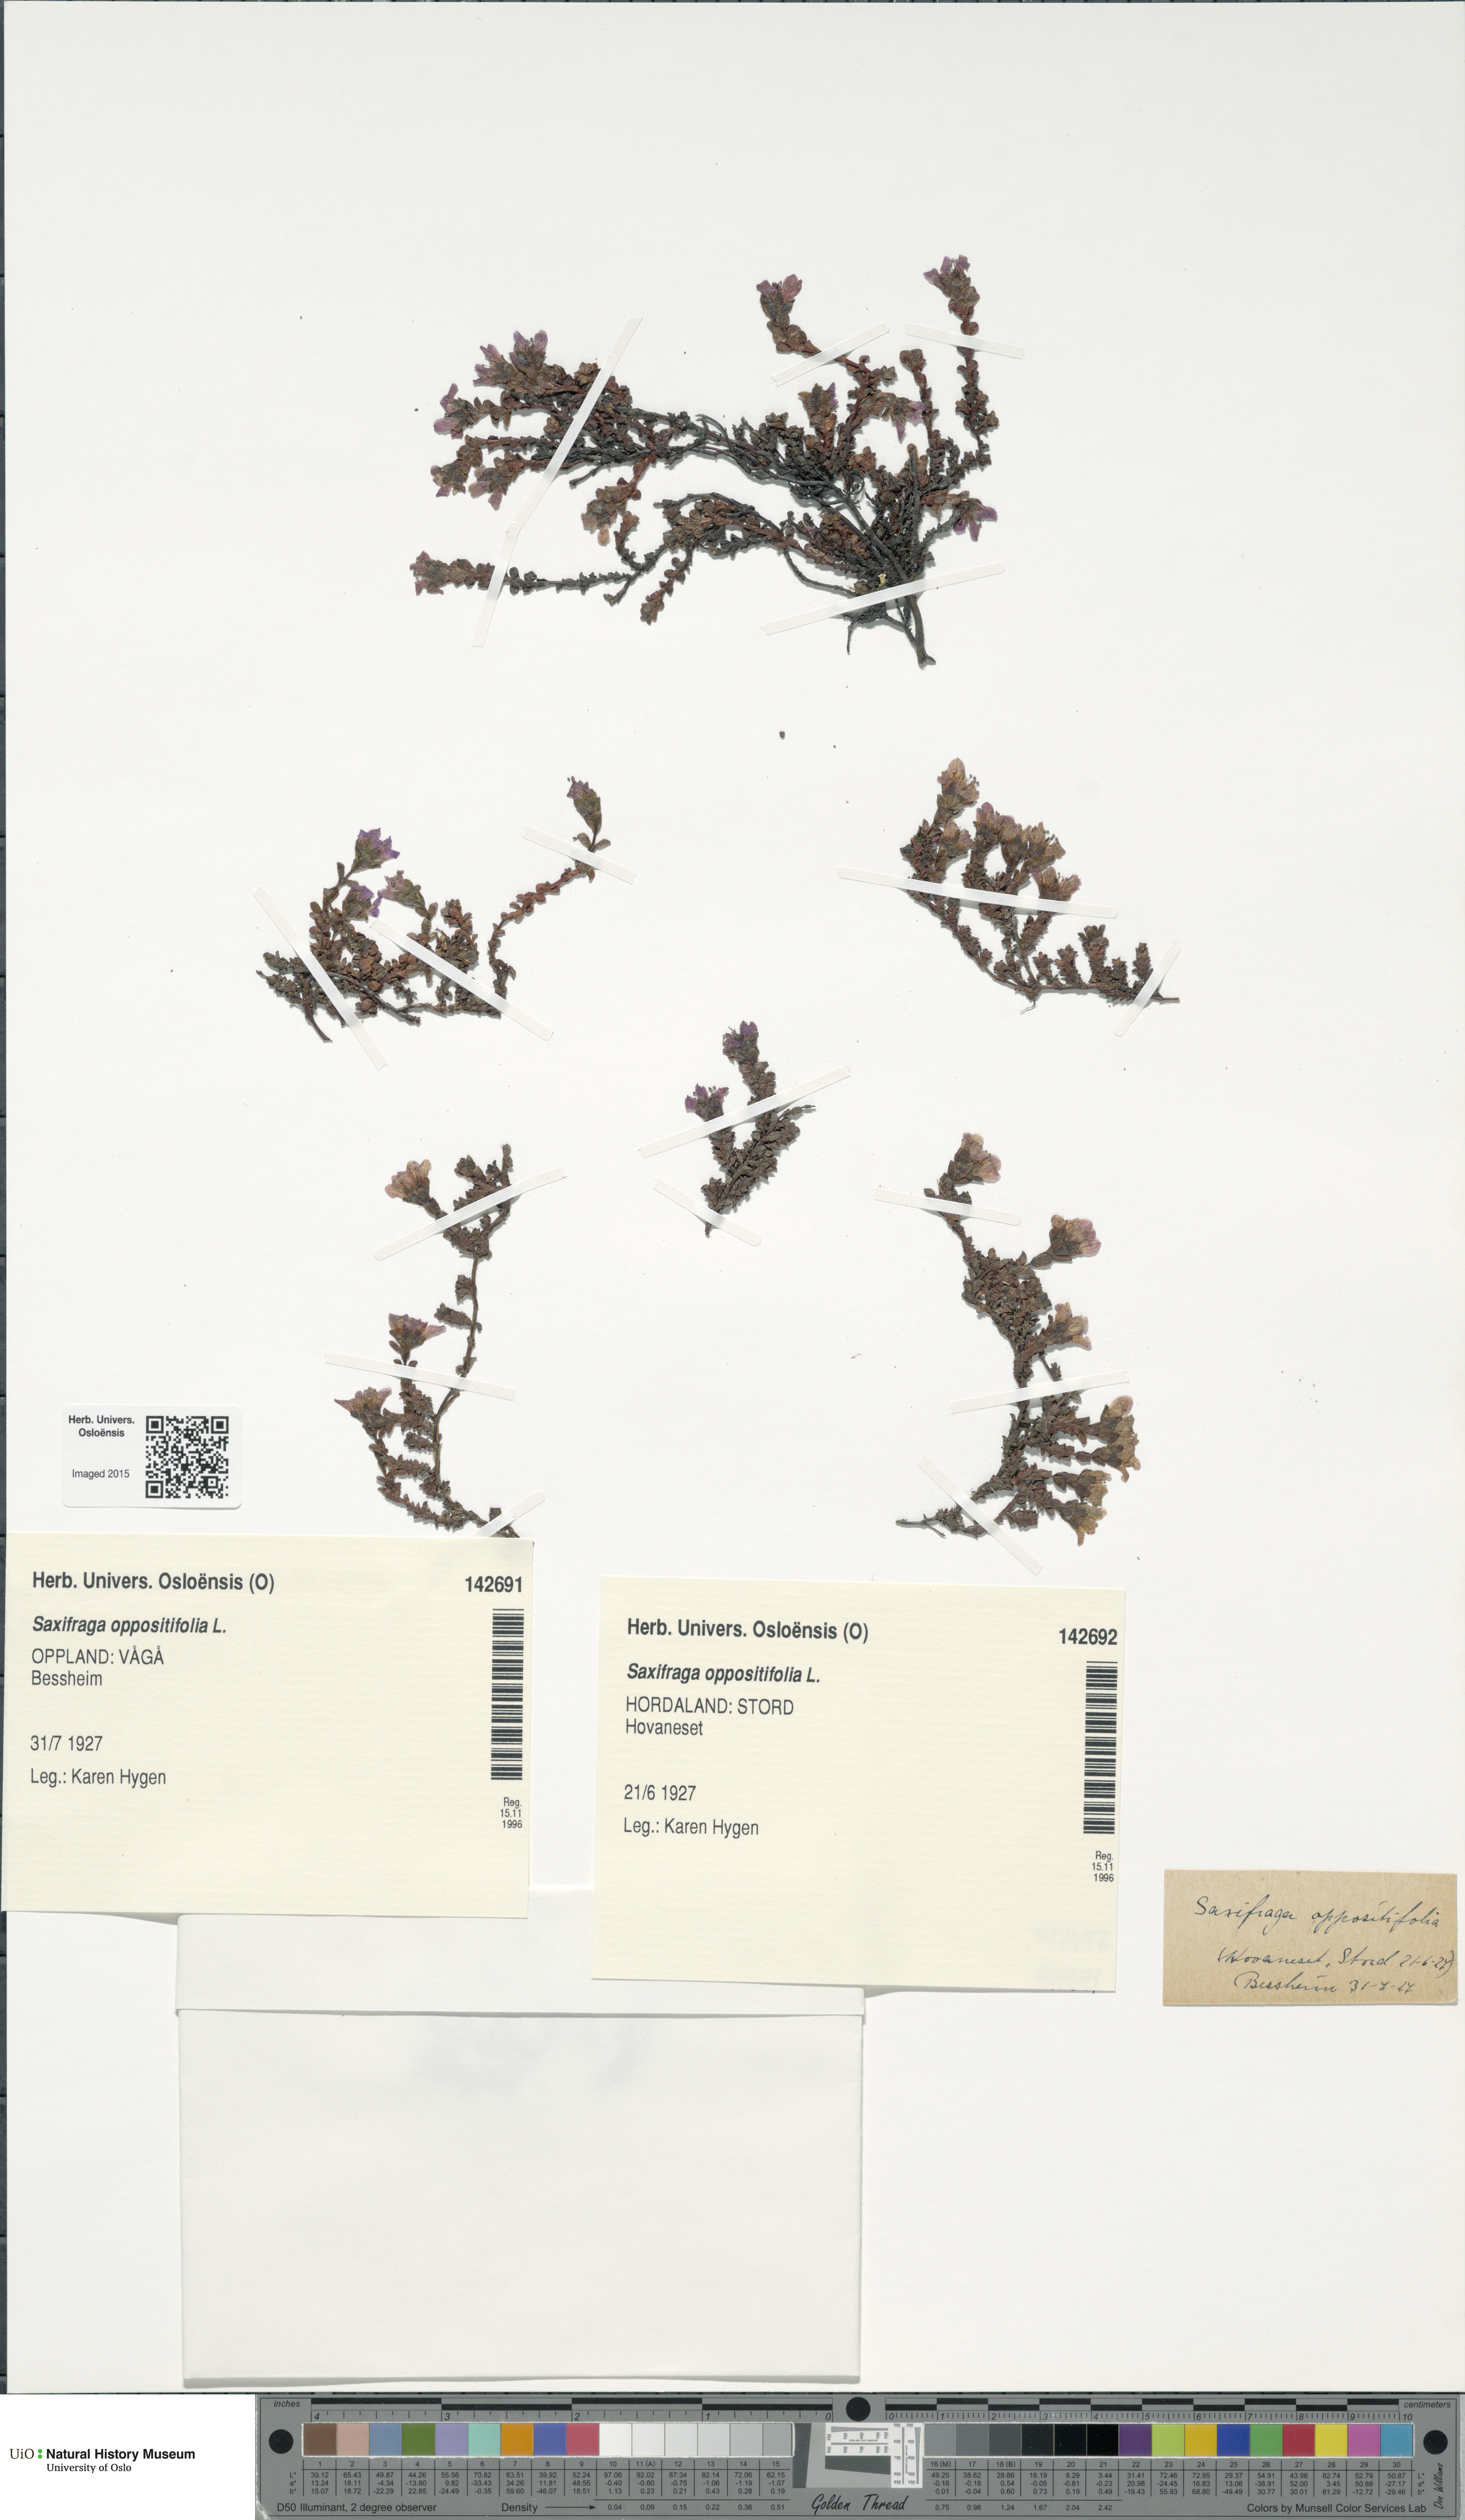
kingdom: Plantae
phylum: Tracheophyta
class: Magnoliopsida
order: Saxifragales
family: Saxifragaceae
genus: Saxifraga
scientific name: Saxifraga oppositifolia
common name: Purple saxifrage
